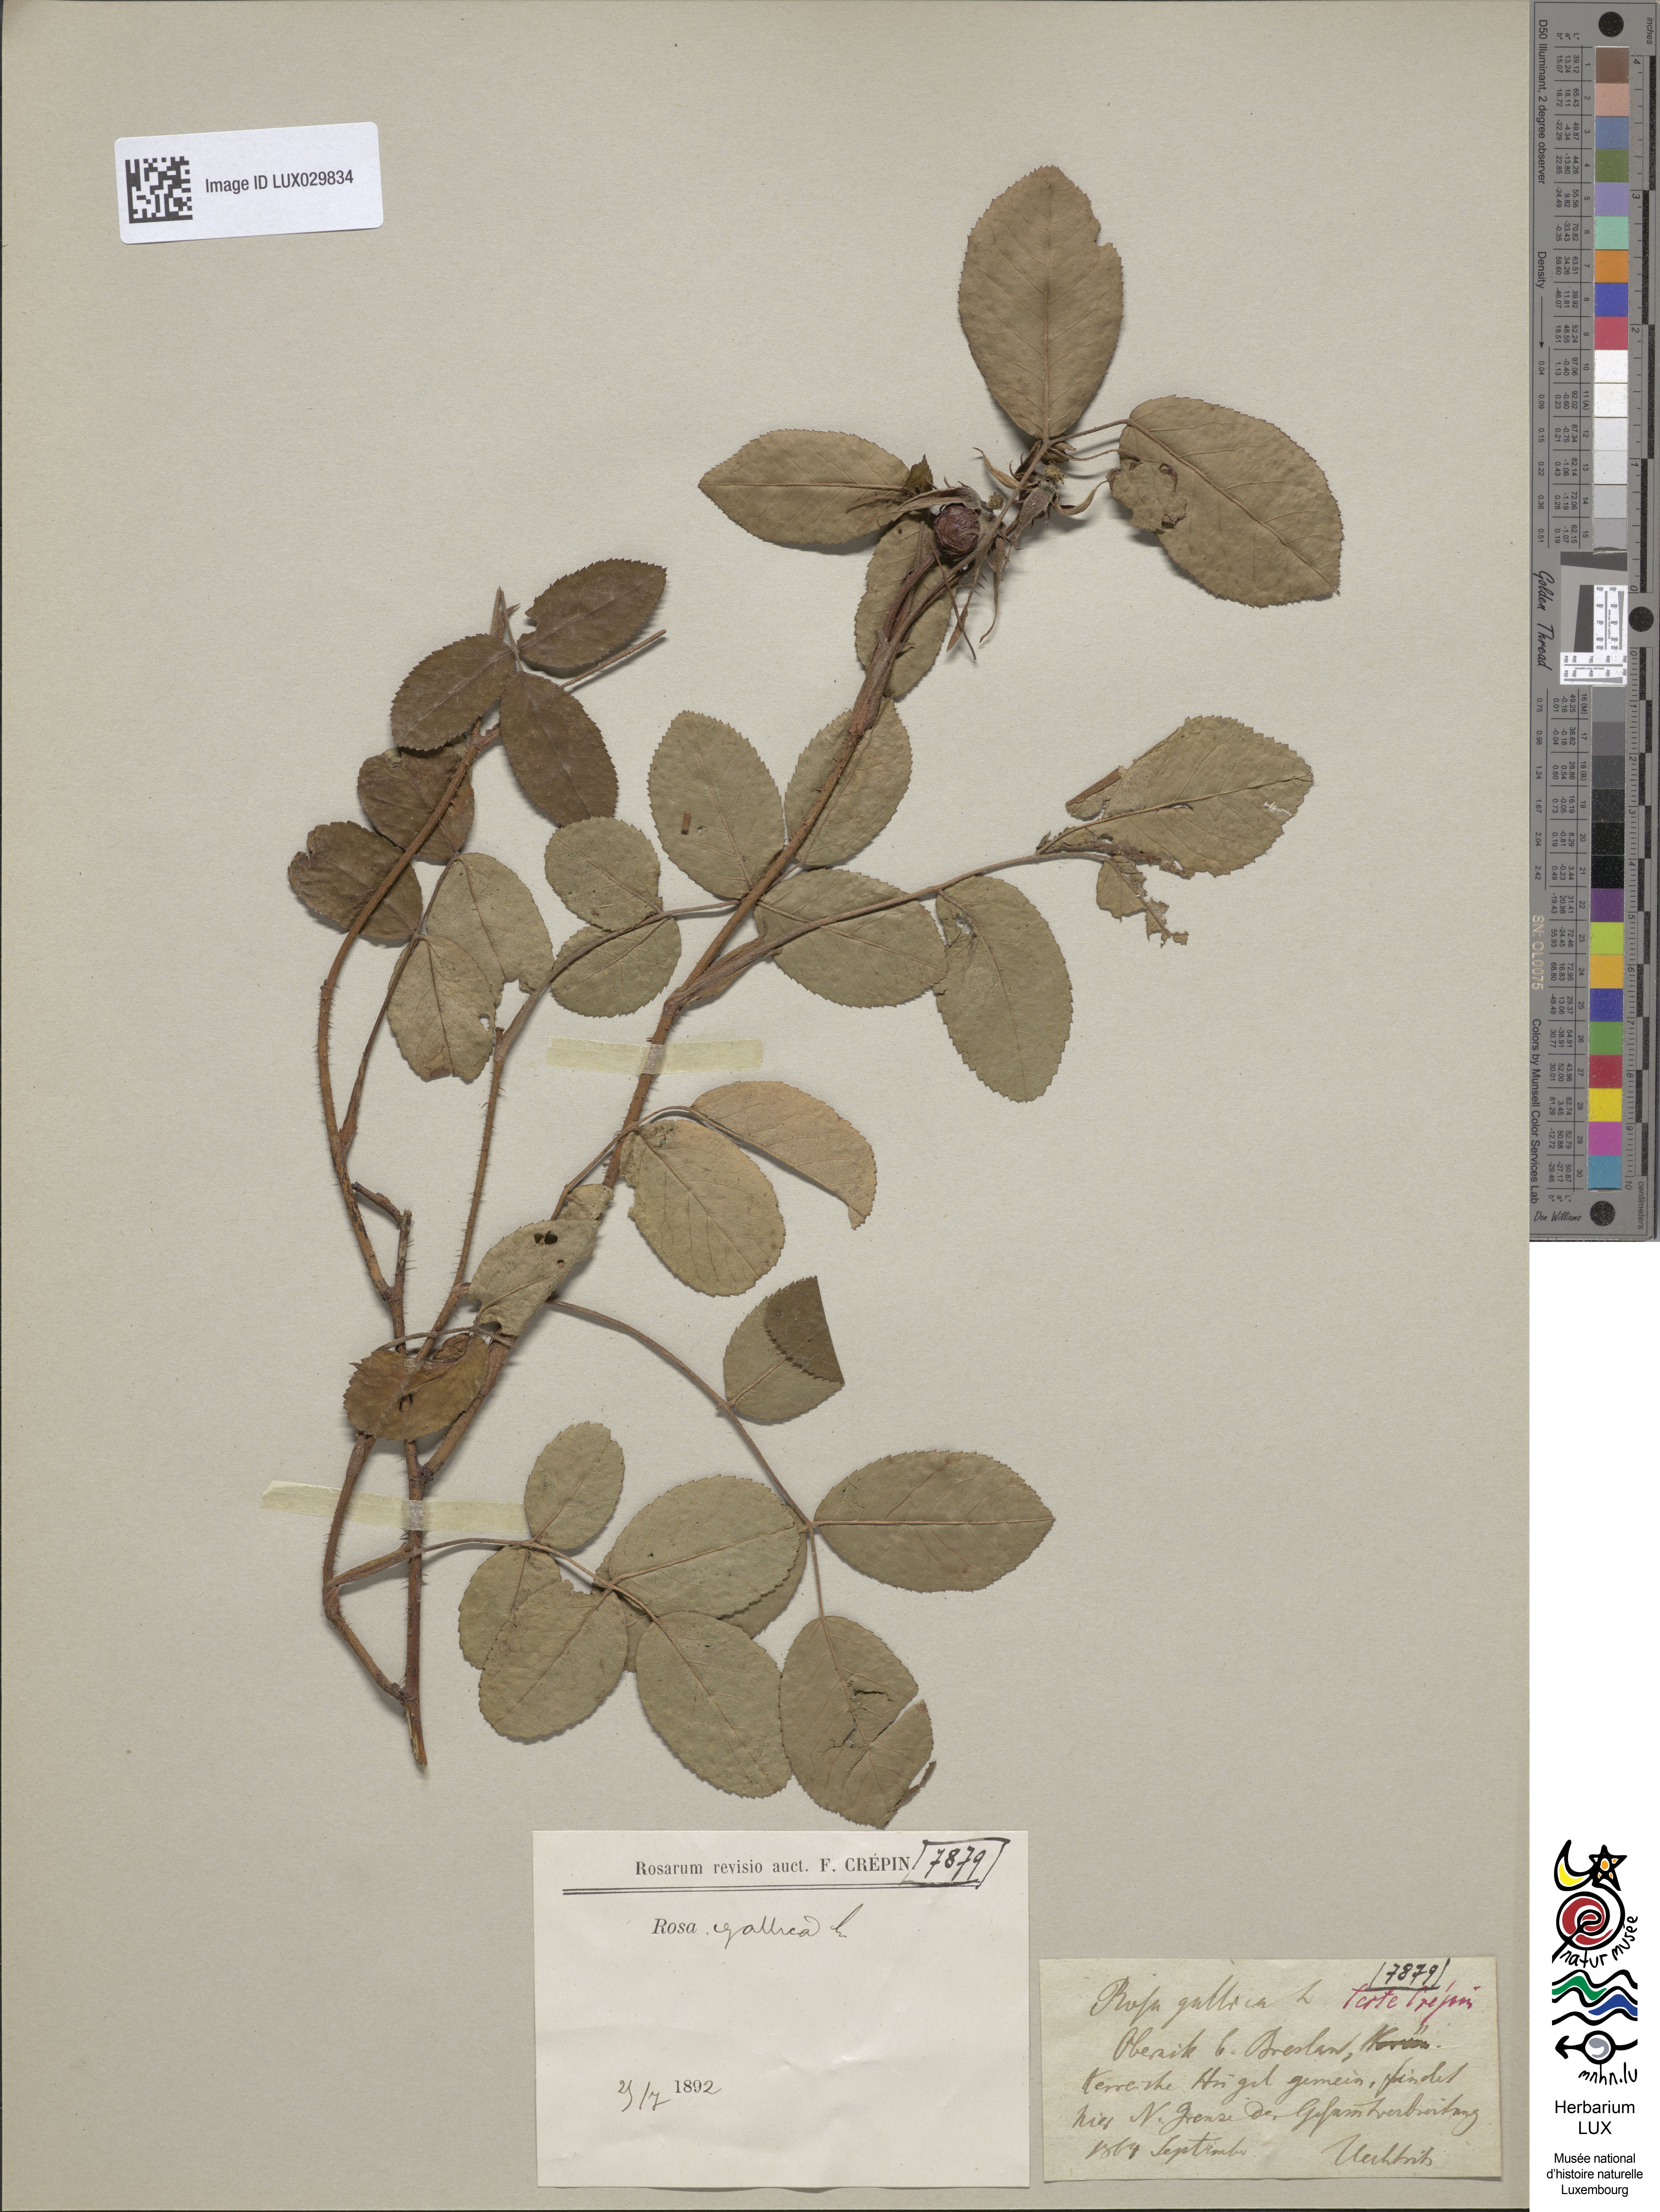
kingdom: Plantae
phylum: Tracheophyta
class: Magnoliopsida
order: Rosales
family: Rosaceae
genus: Rosa
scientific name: Rosa gallica
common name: French rose
